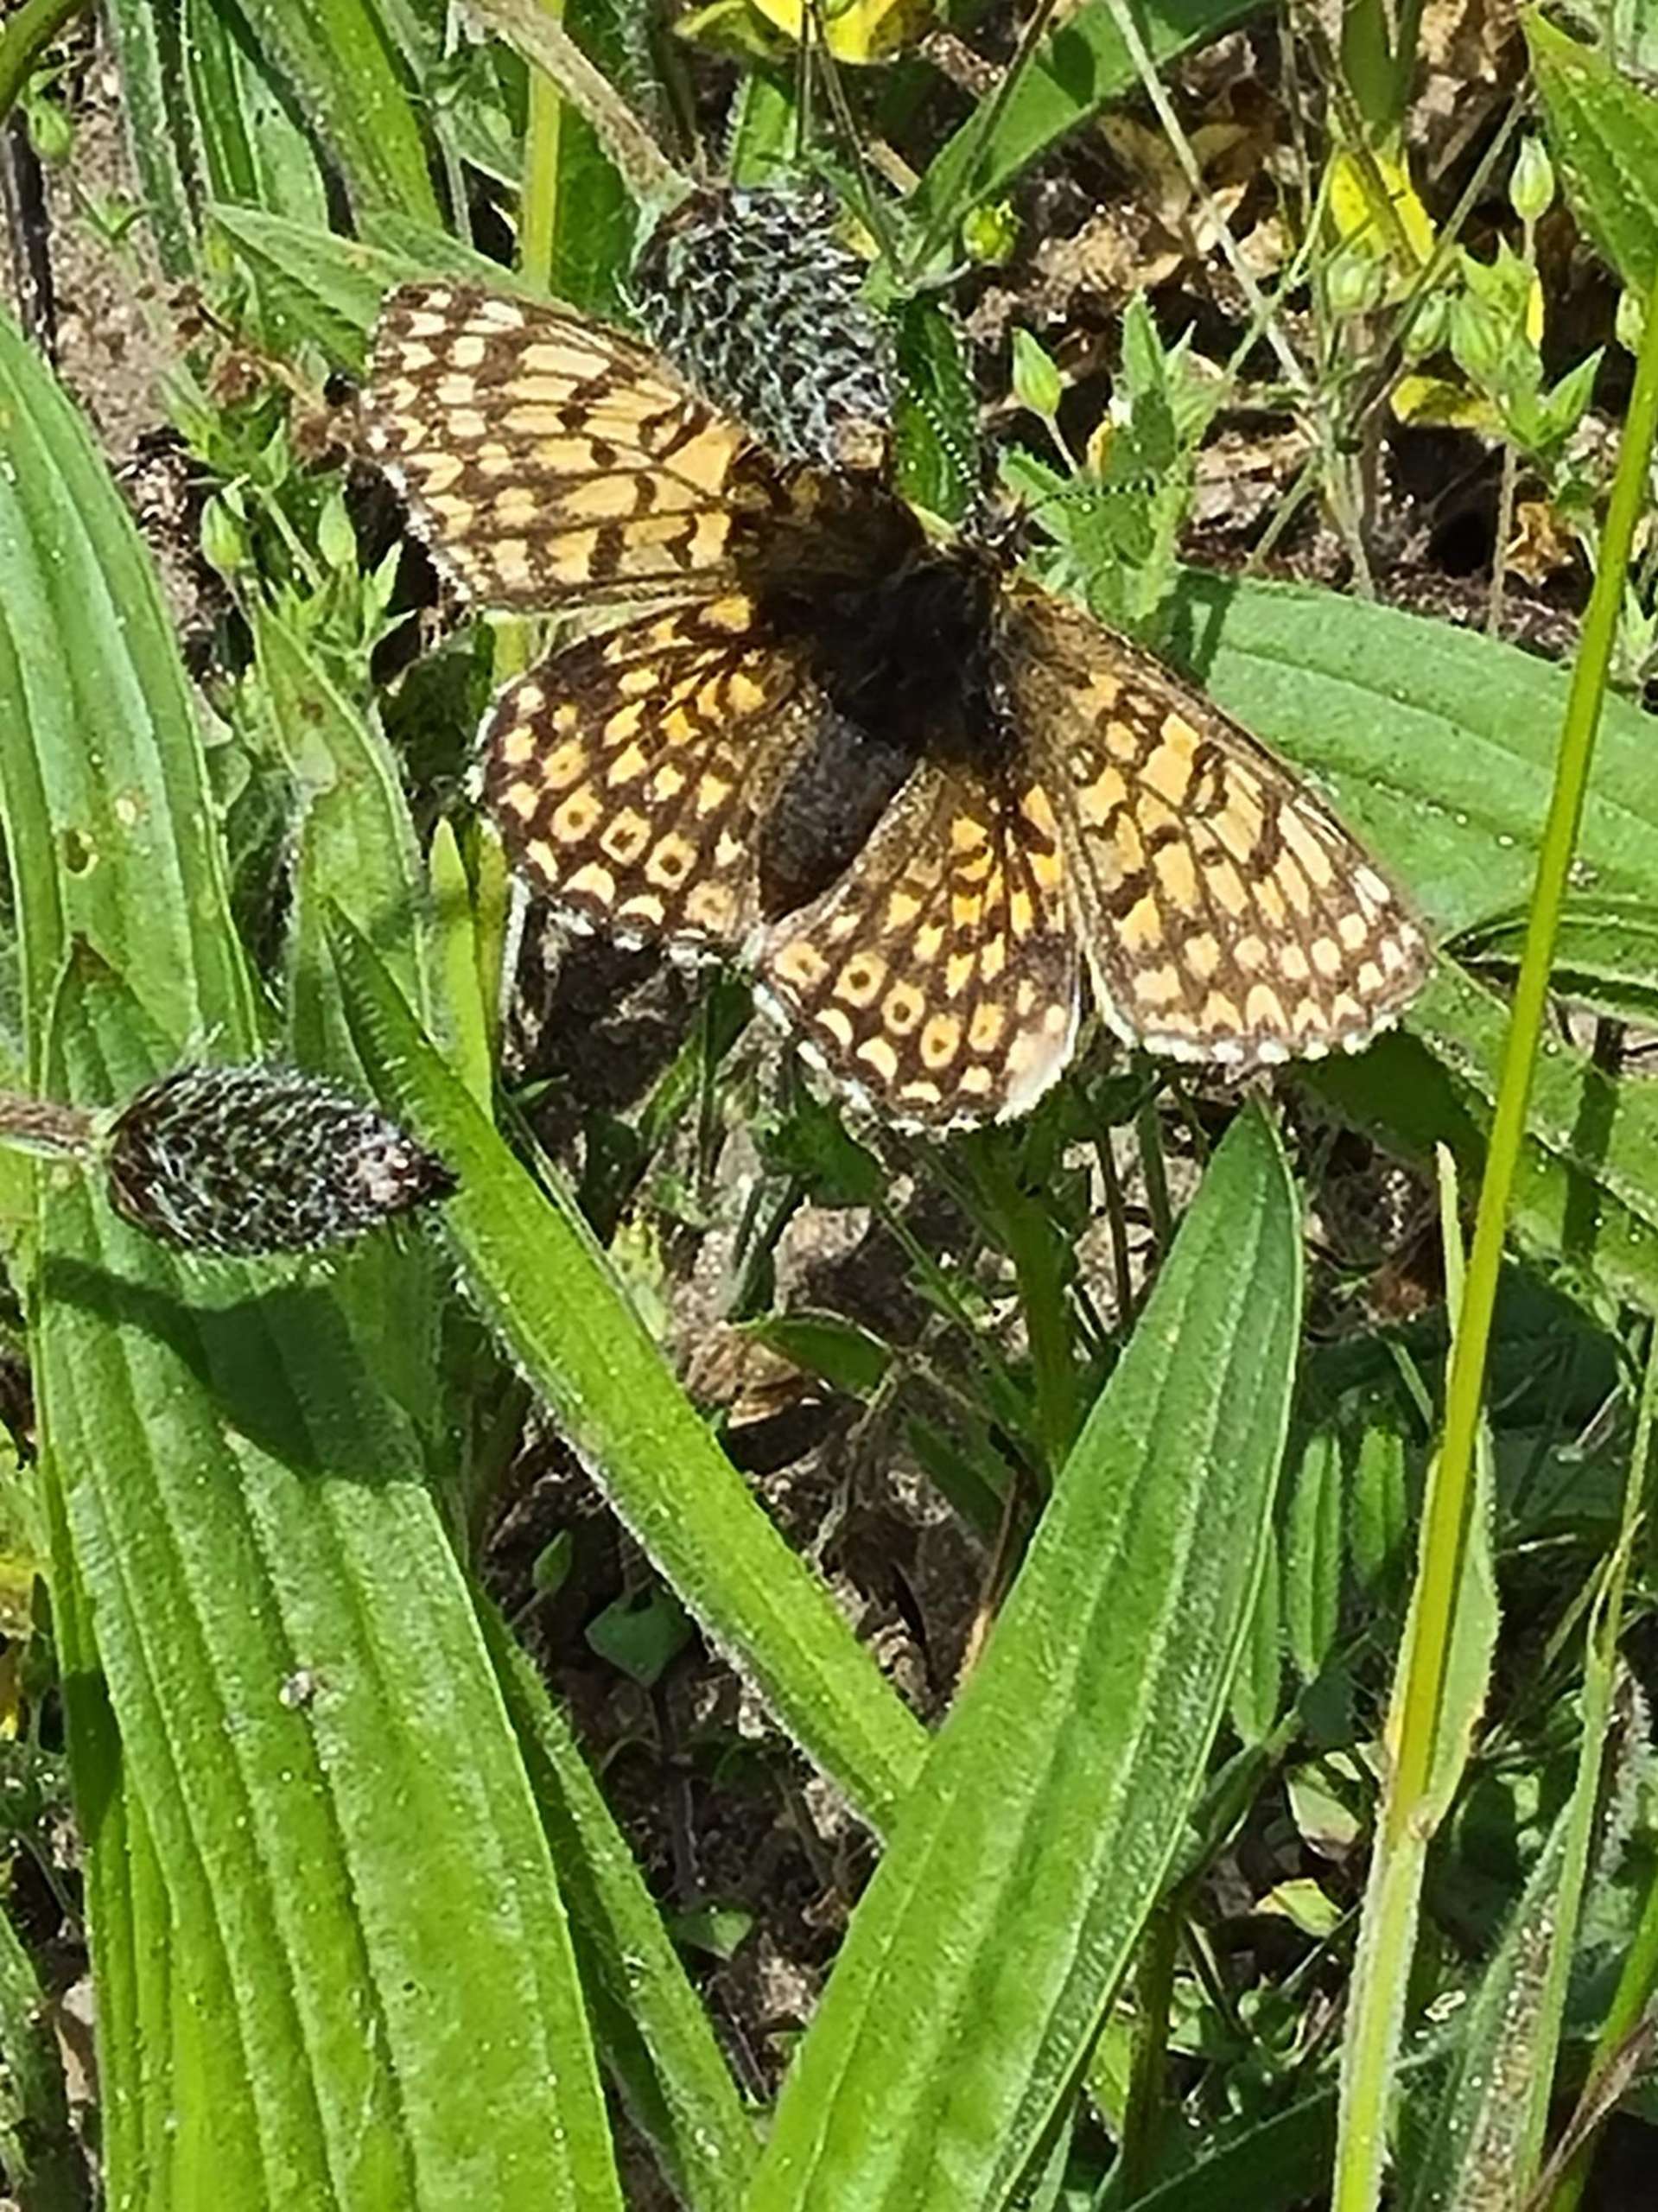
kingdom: Animalia
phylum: Arthropoda
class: Insecta
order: Lepidoptera
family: Nymphalidae
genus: Melitaea
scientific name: Melitaea cinxia
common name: Okkergul pletvinge
